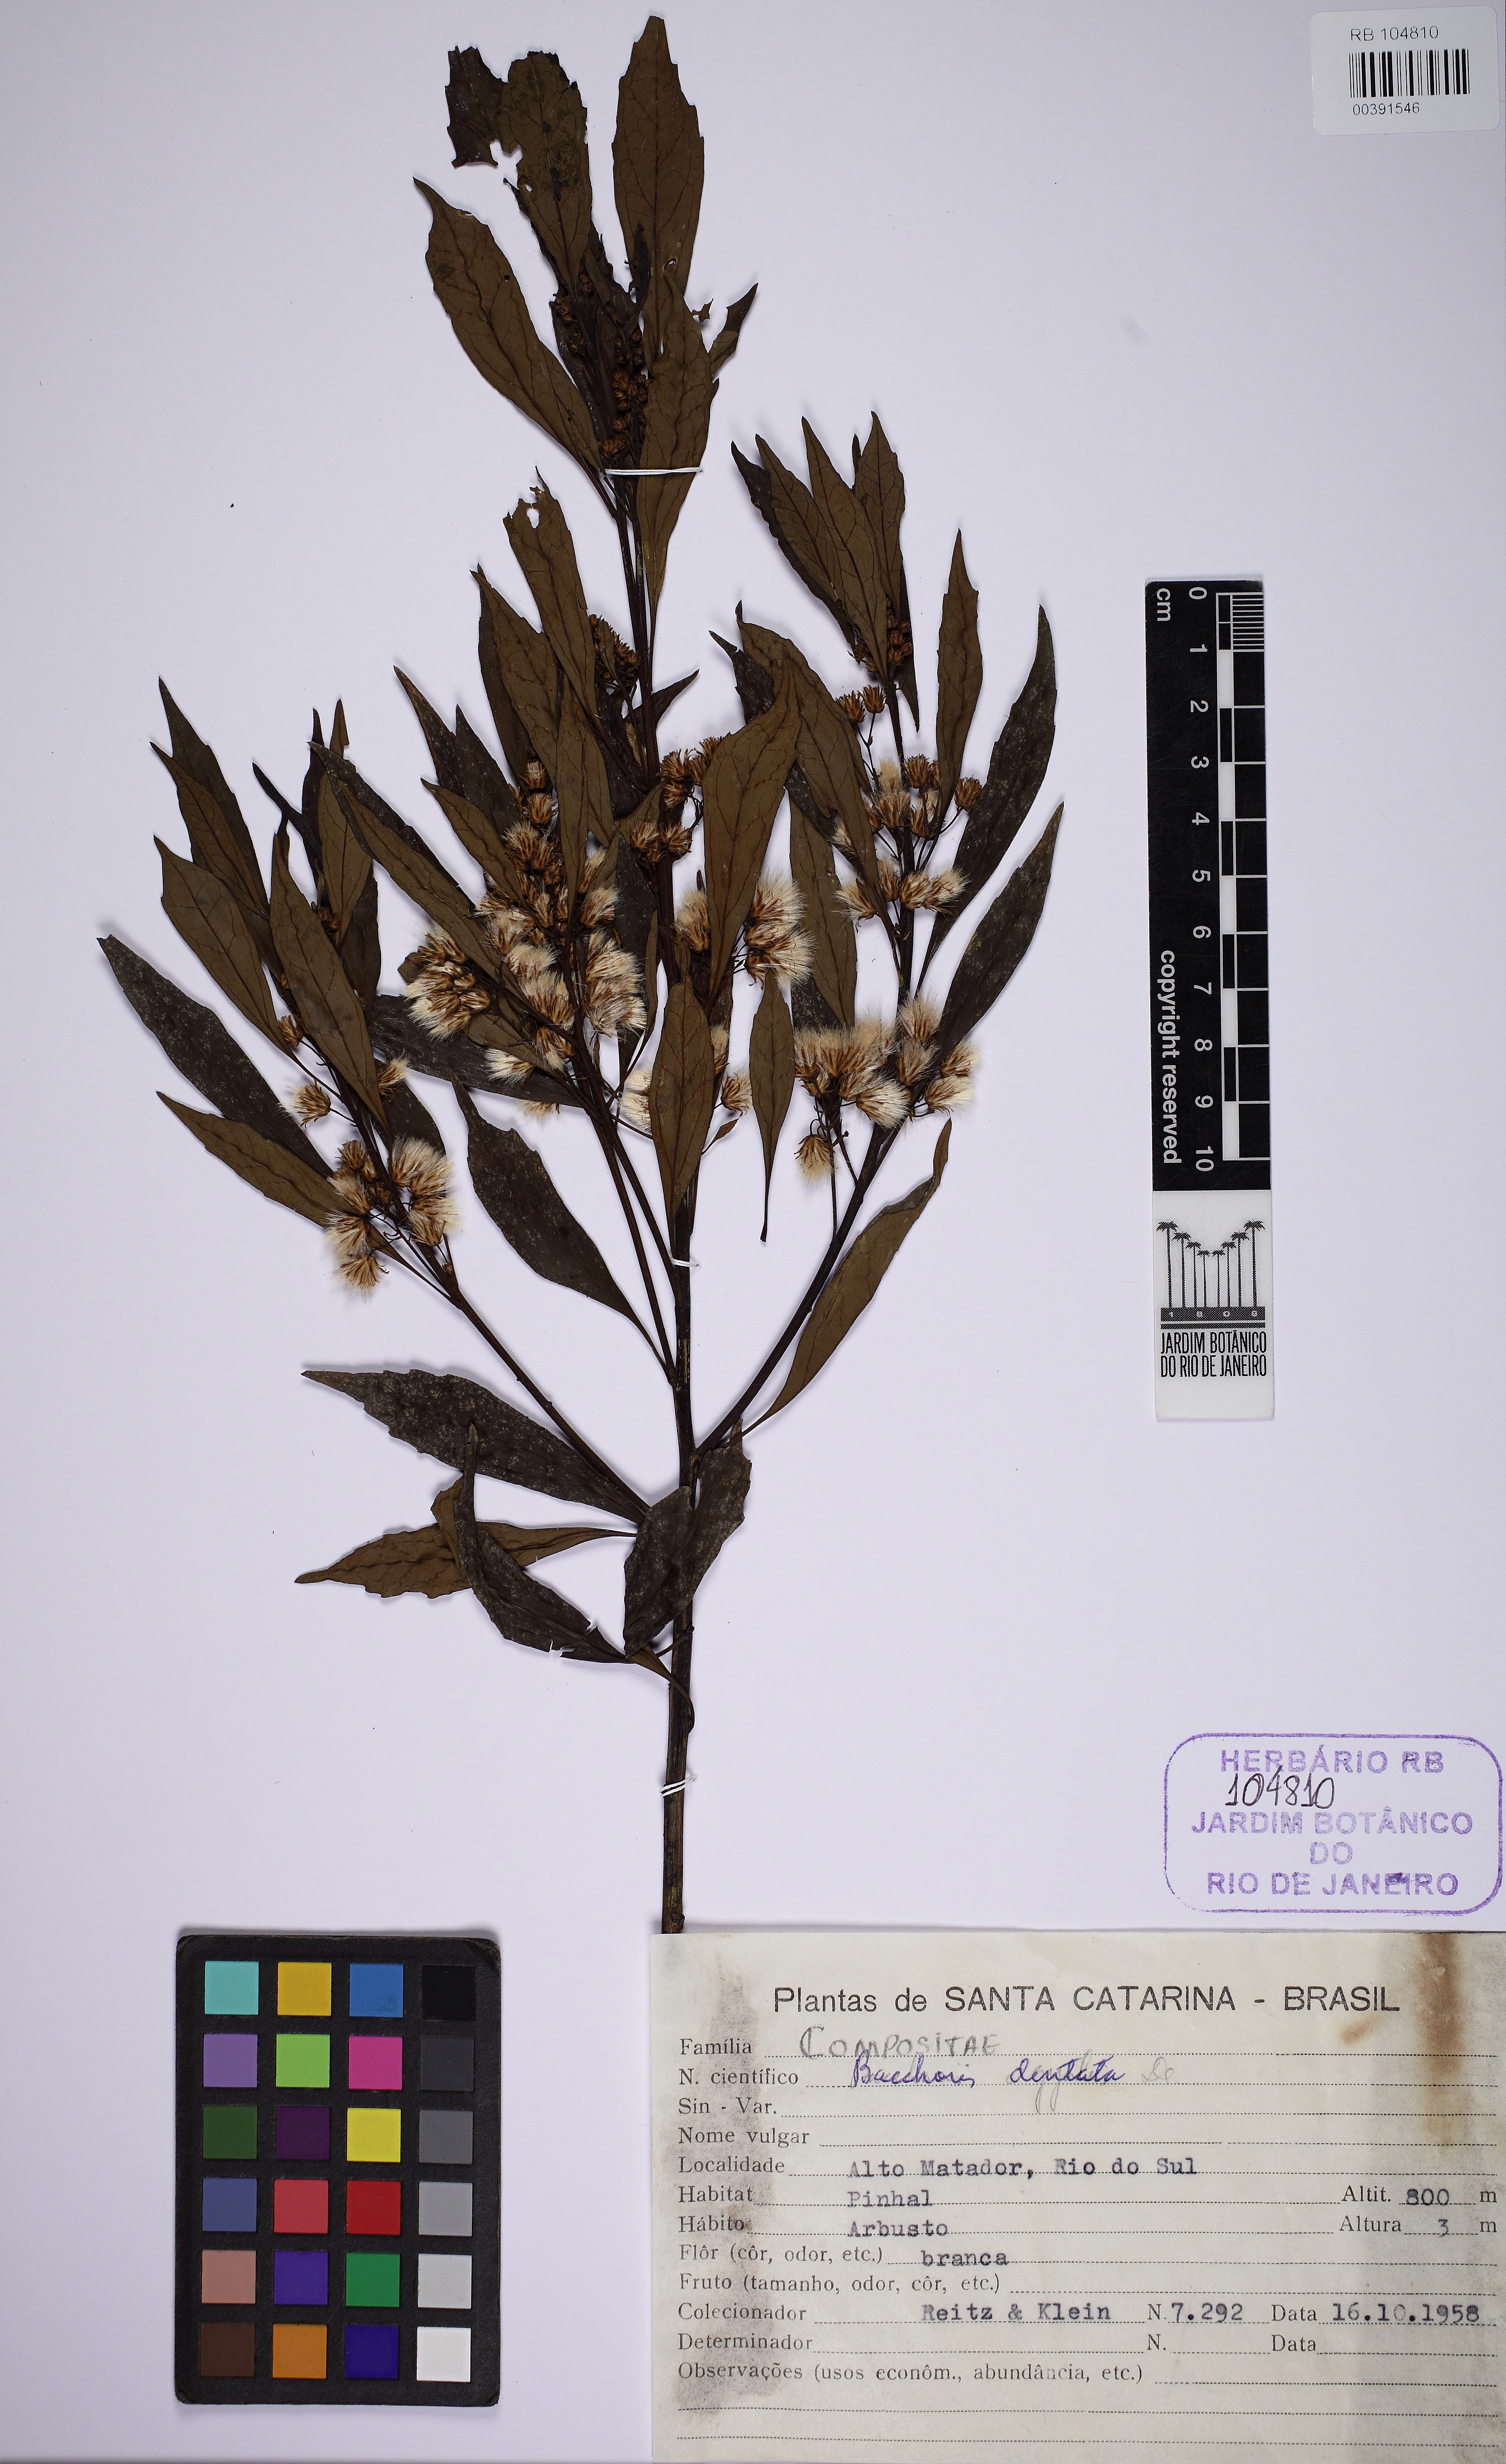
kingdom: Plantae
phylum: Tracheophyta
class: Magnoliopsida
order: Asterales
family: Asteraceae
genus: Baccharis
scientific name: Baccharis dentata
